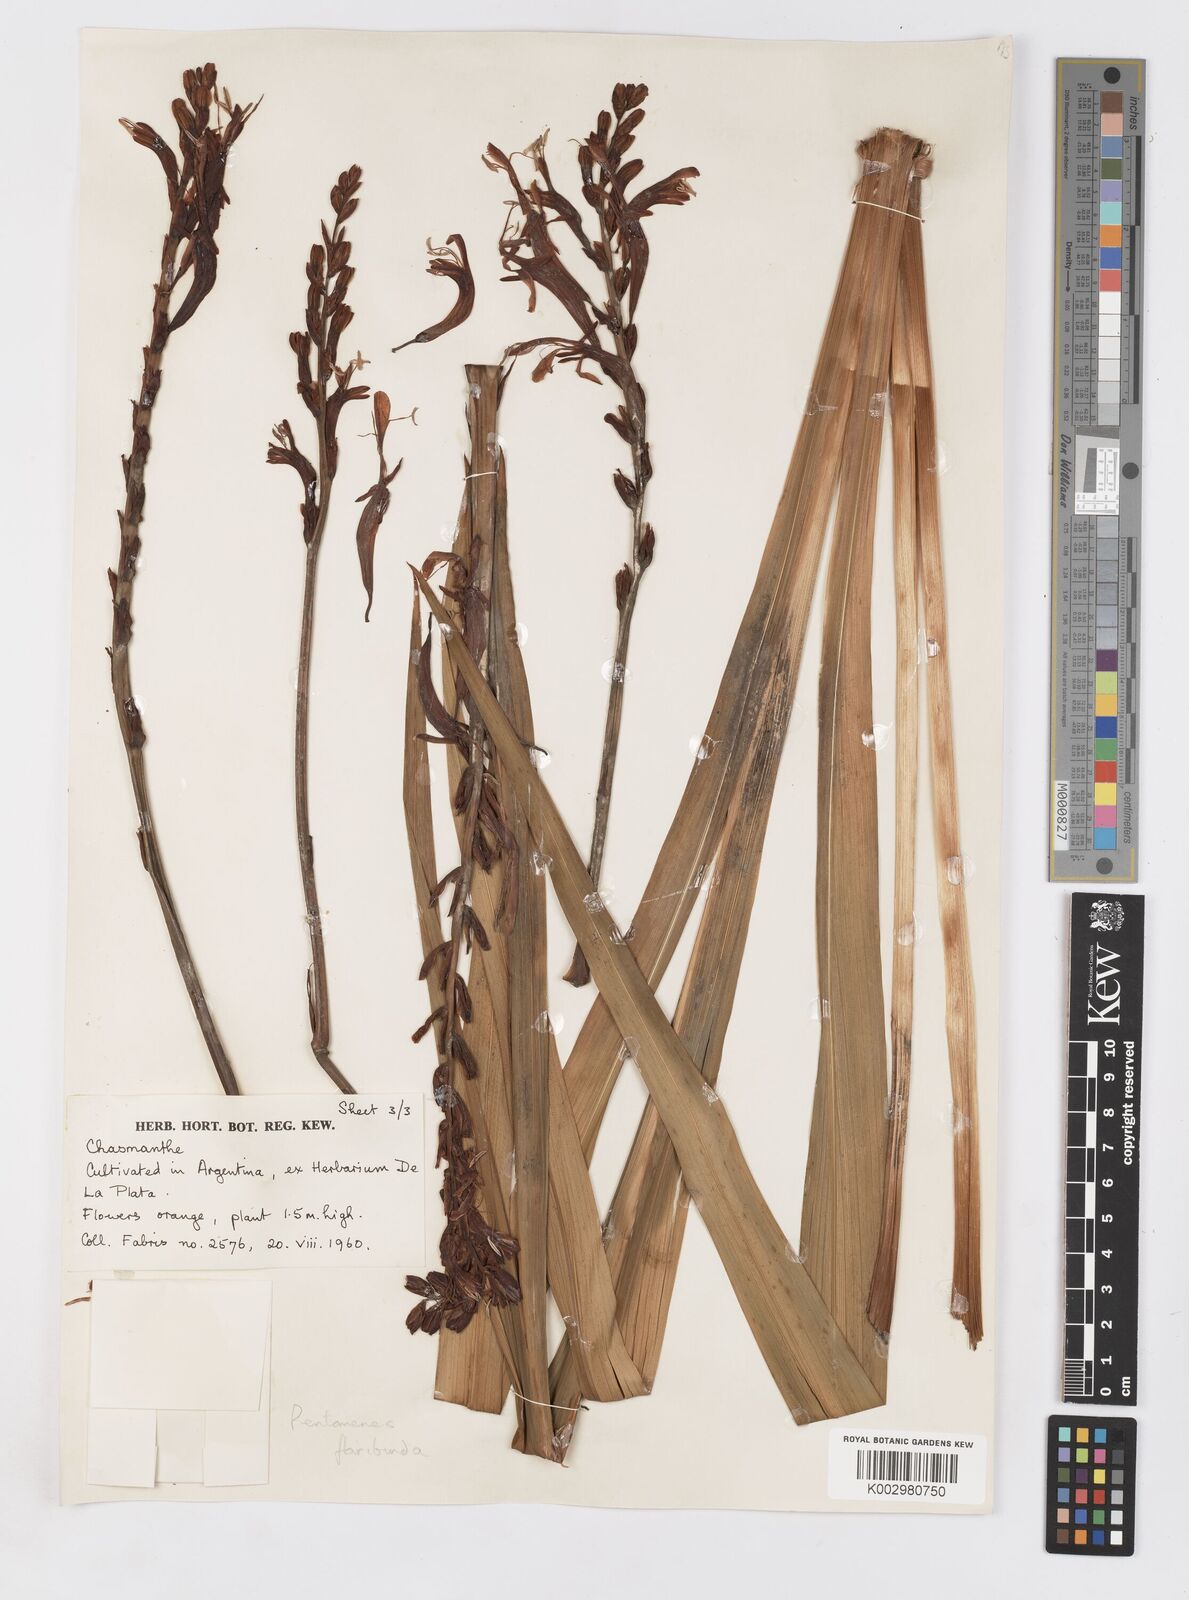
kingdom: Plantae
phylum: Tracheophyta
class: Liliopsida
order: Asparagales
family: Iridaceae
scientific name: Iridaceae
